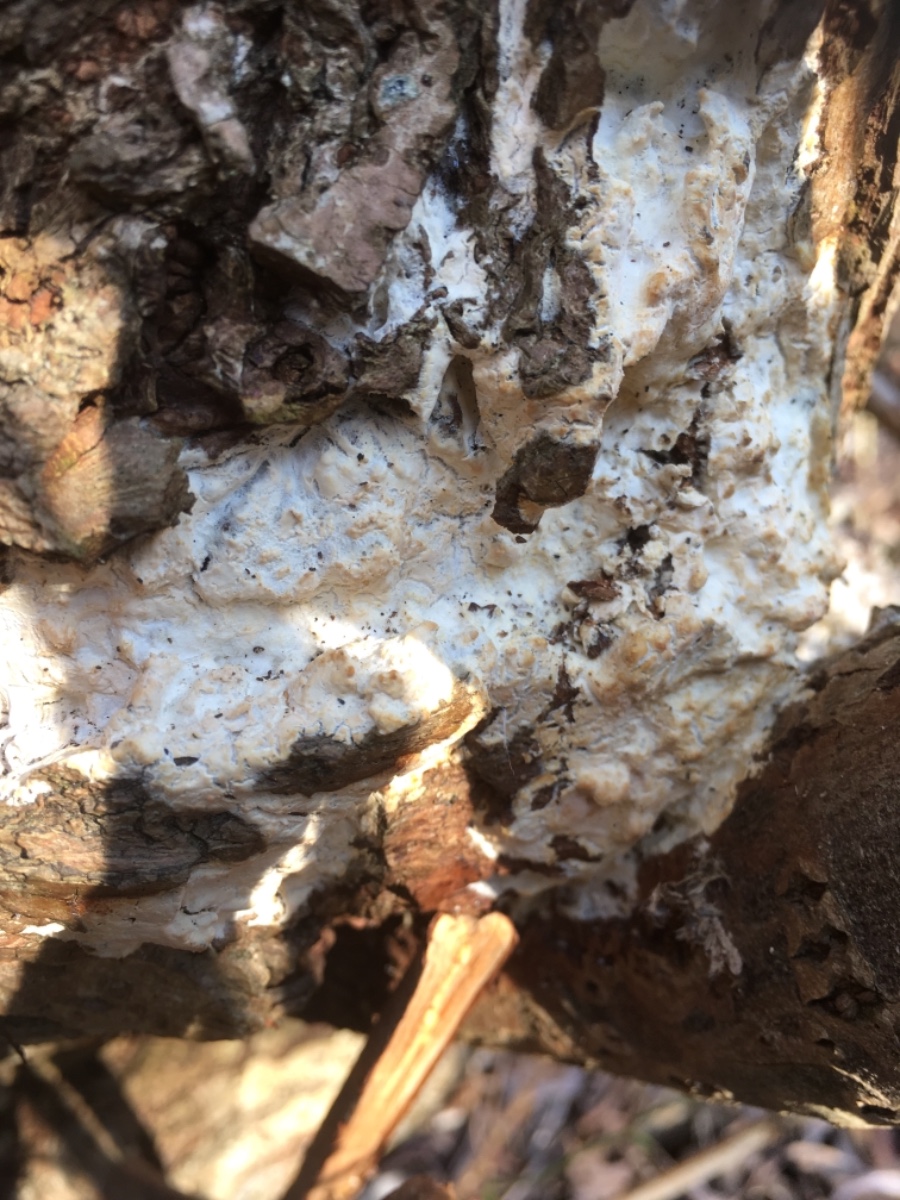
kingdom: Fungi
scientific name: Fungi
